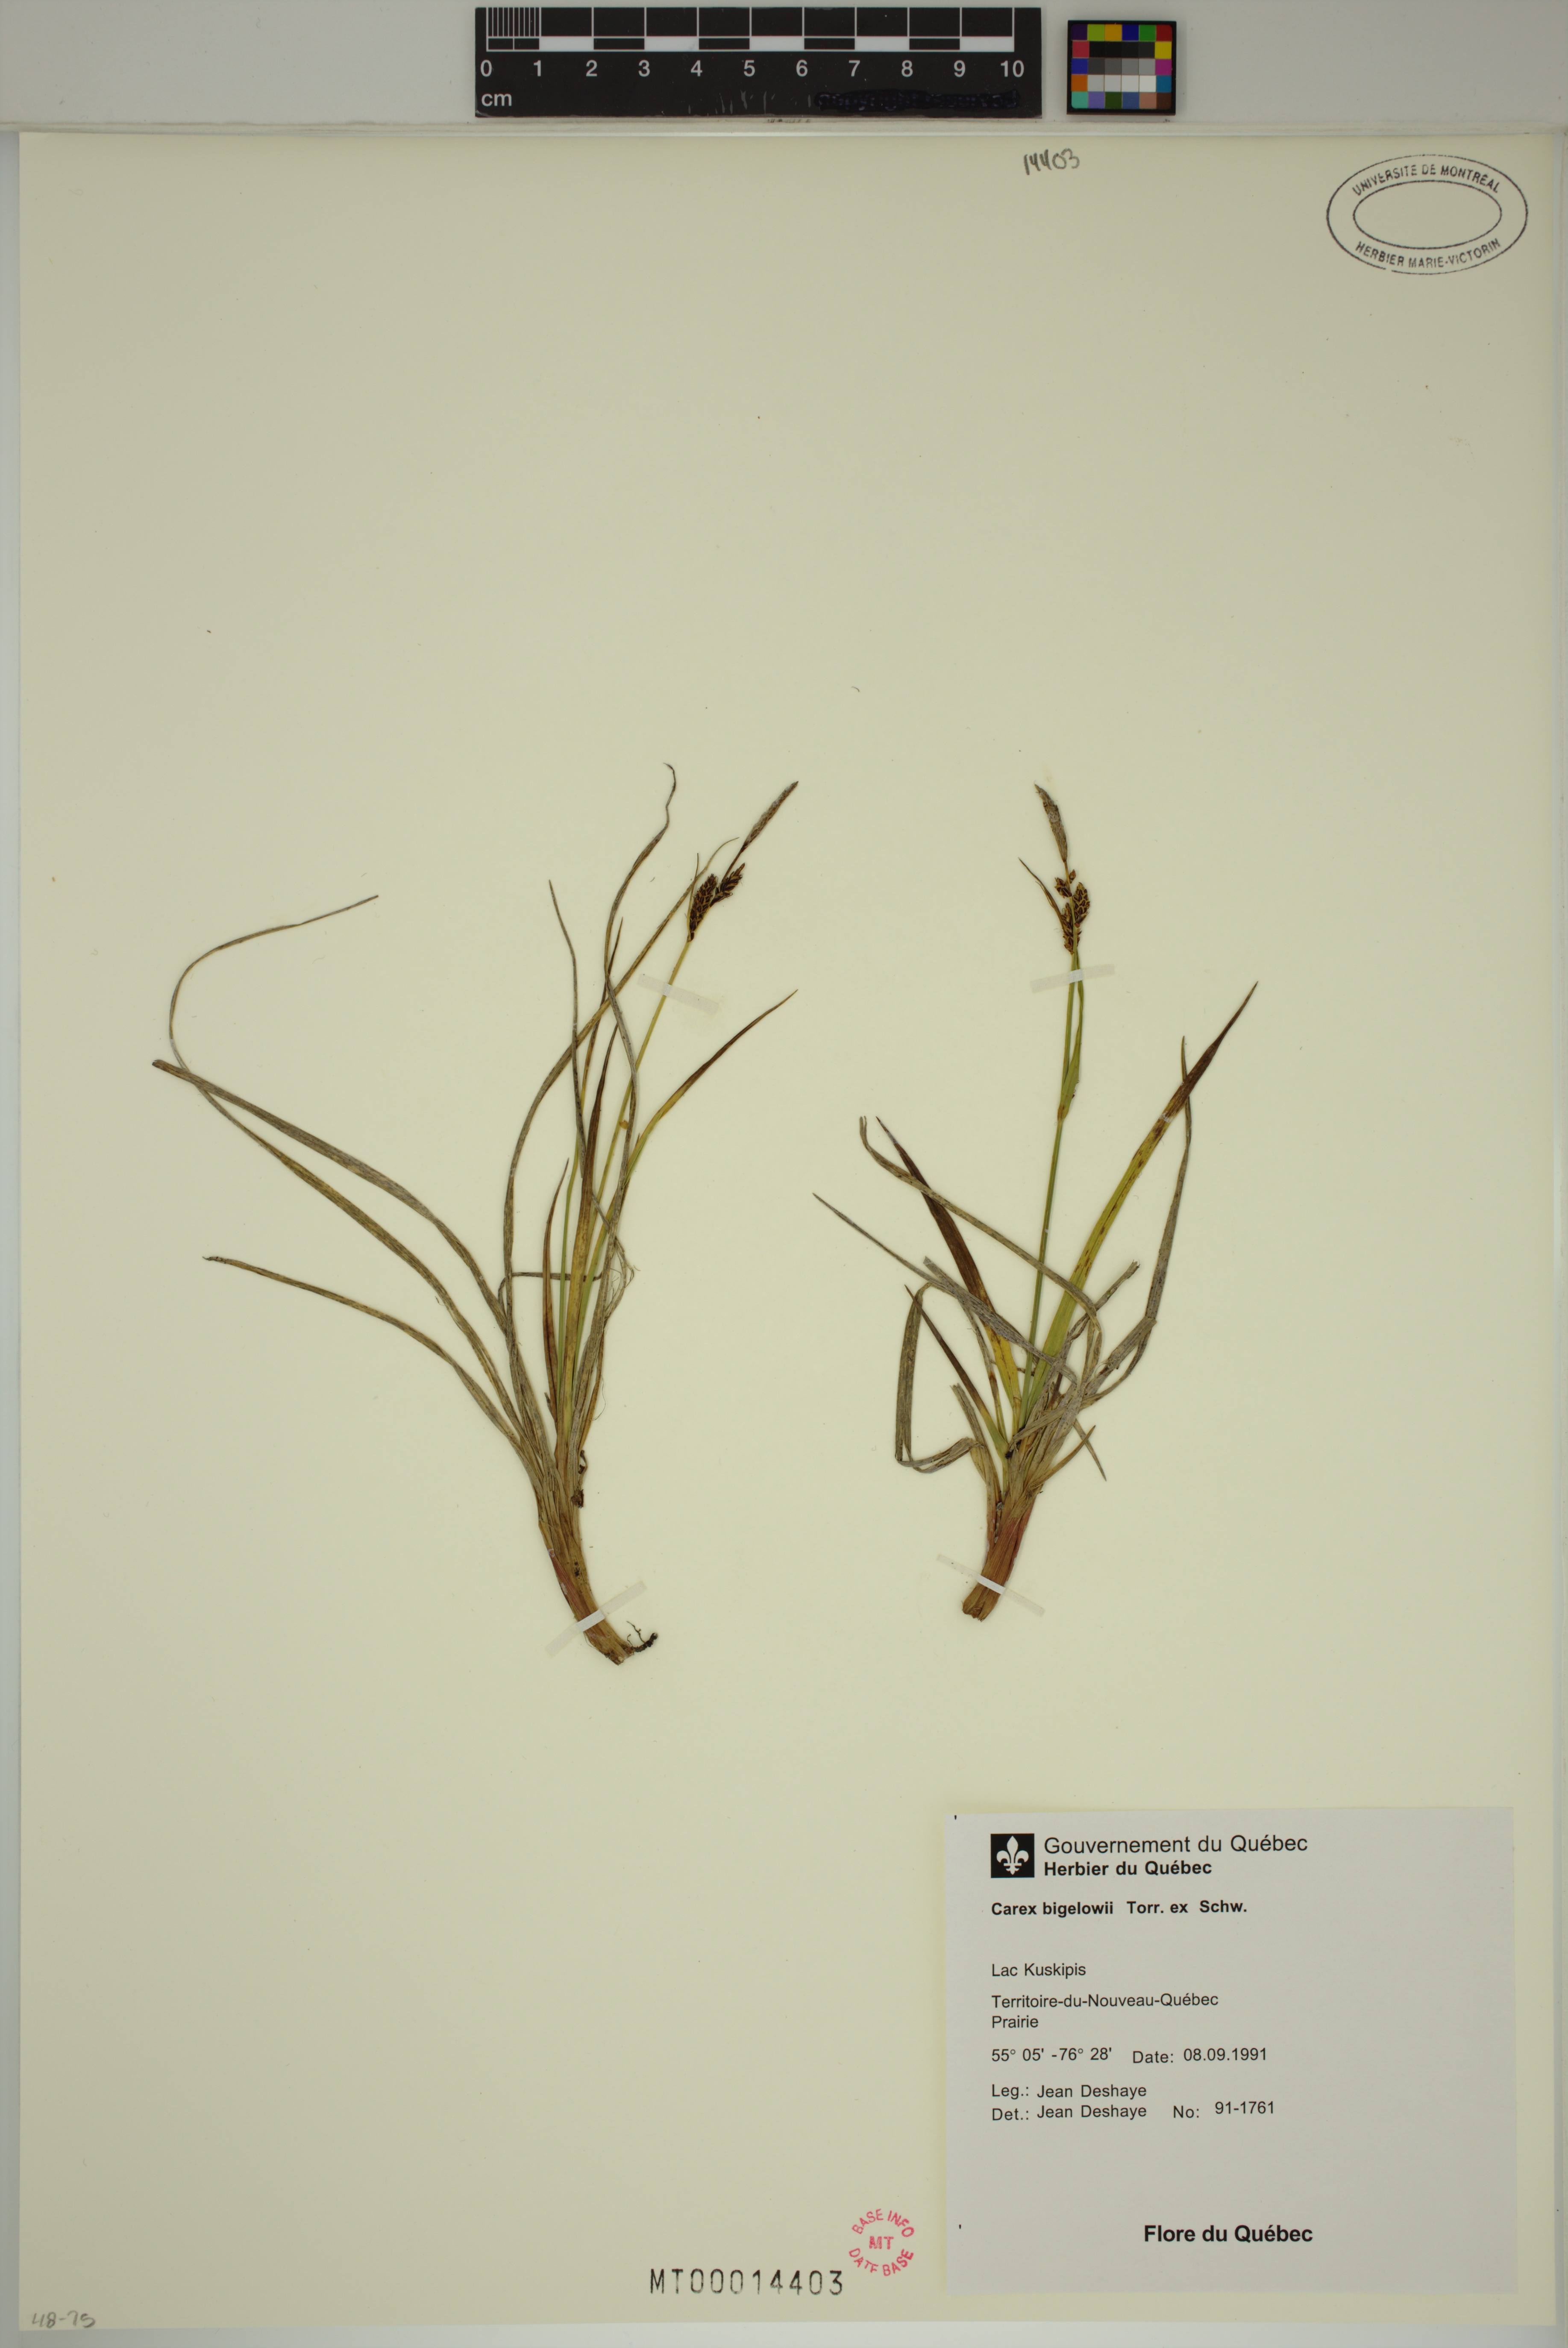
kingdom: Plantae
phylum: Tracheophyta
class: Liliopsida
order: Poales
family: Cyperaceae
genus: Carex
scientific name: Carex bigelowii
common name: Stiff sedge
